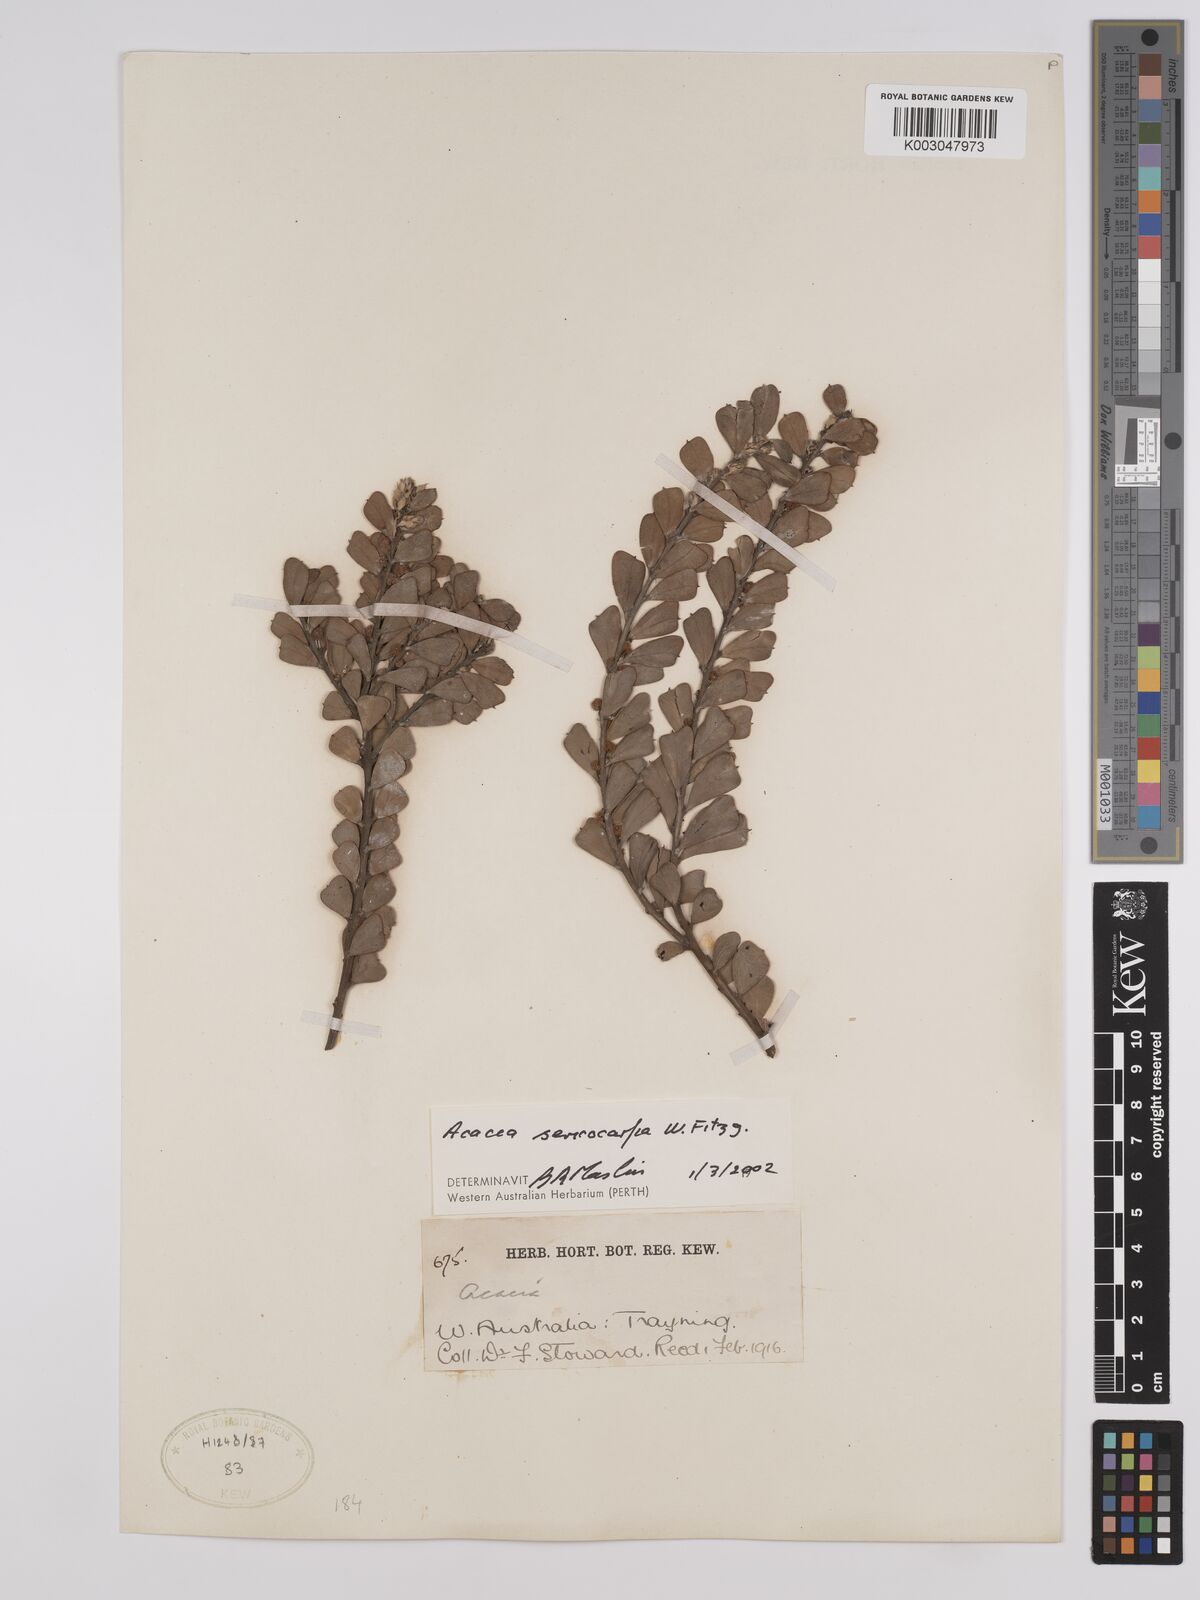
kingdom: Plantae
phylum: Tracheophyta
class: Magnoliopsida
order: Fabales
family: Fabaceae
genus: Acacia
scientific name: Acacia sericocarpa
